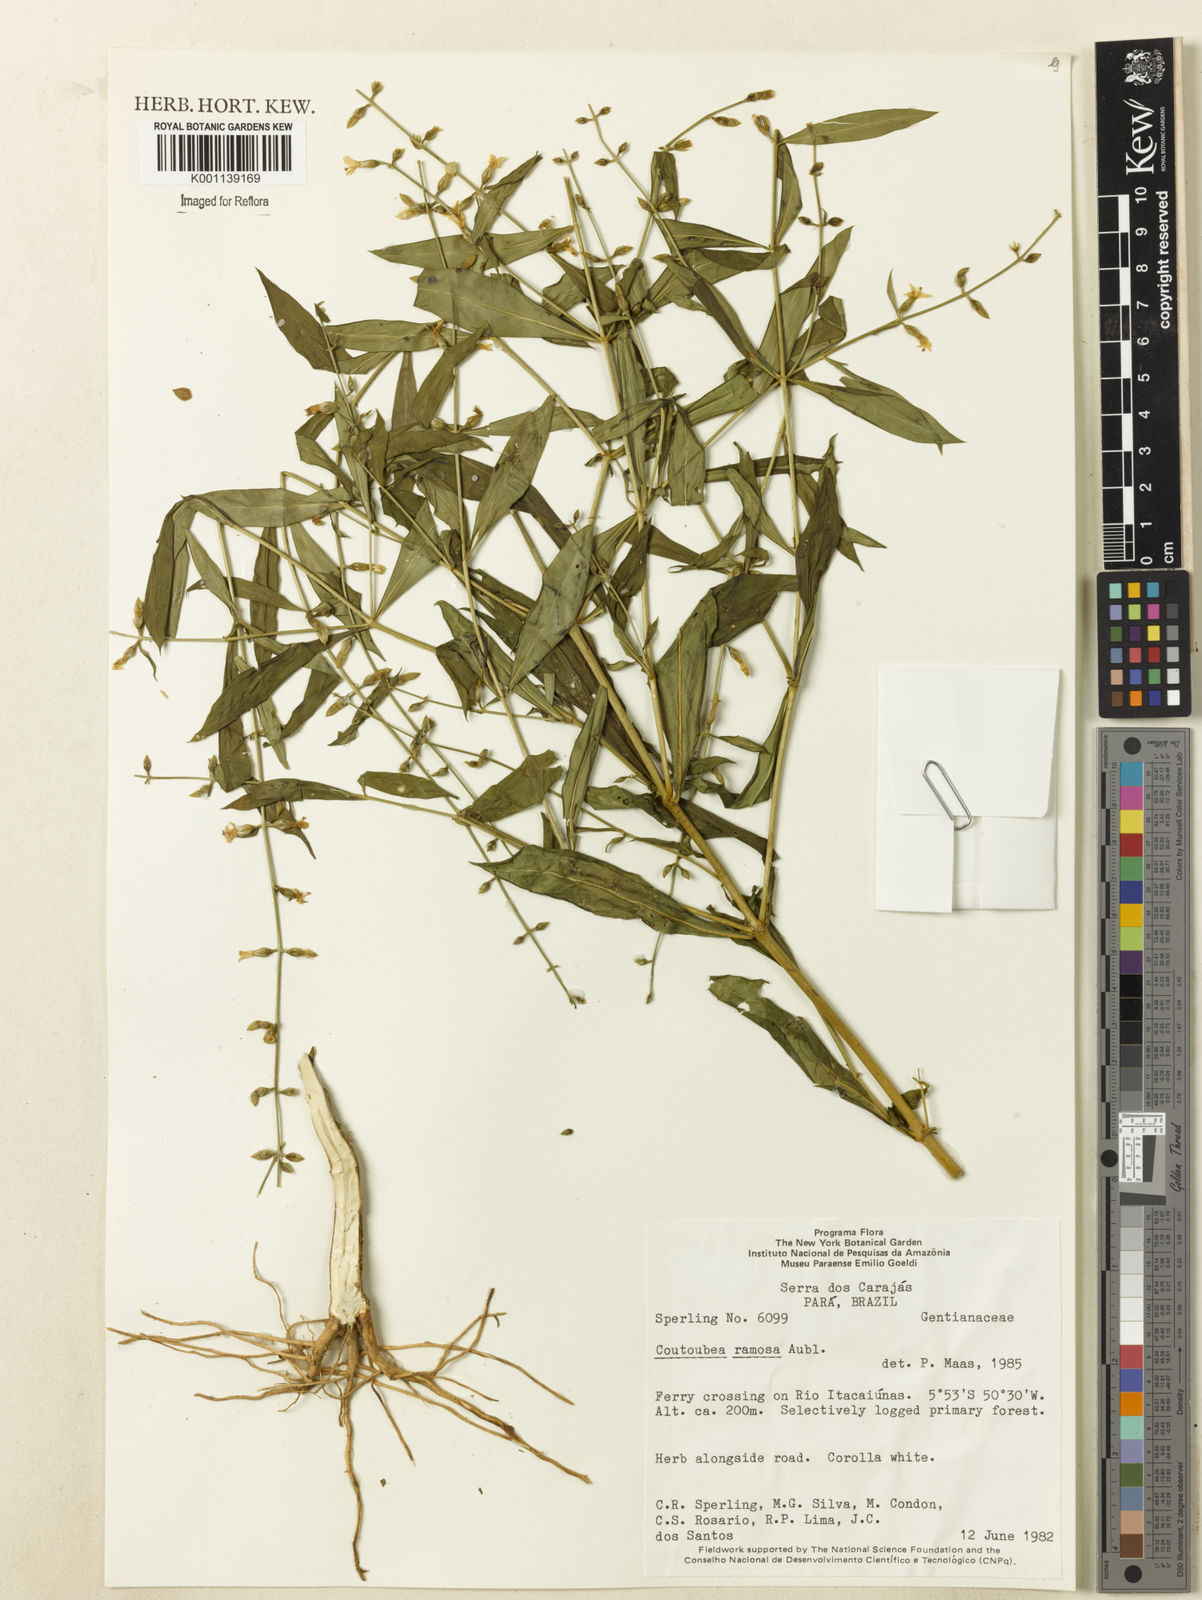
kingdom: Plantae
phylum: Tracheophyta
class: Magnoliopsida
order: Gentianales
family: Gentianaceae
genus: Coutoubea
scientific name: Coutoubea ramosa
